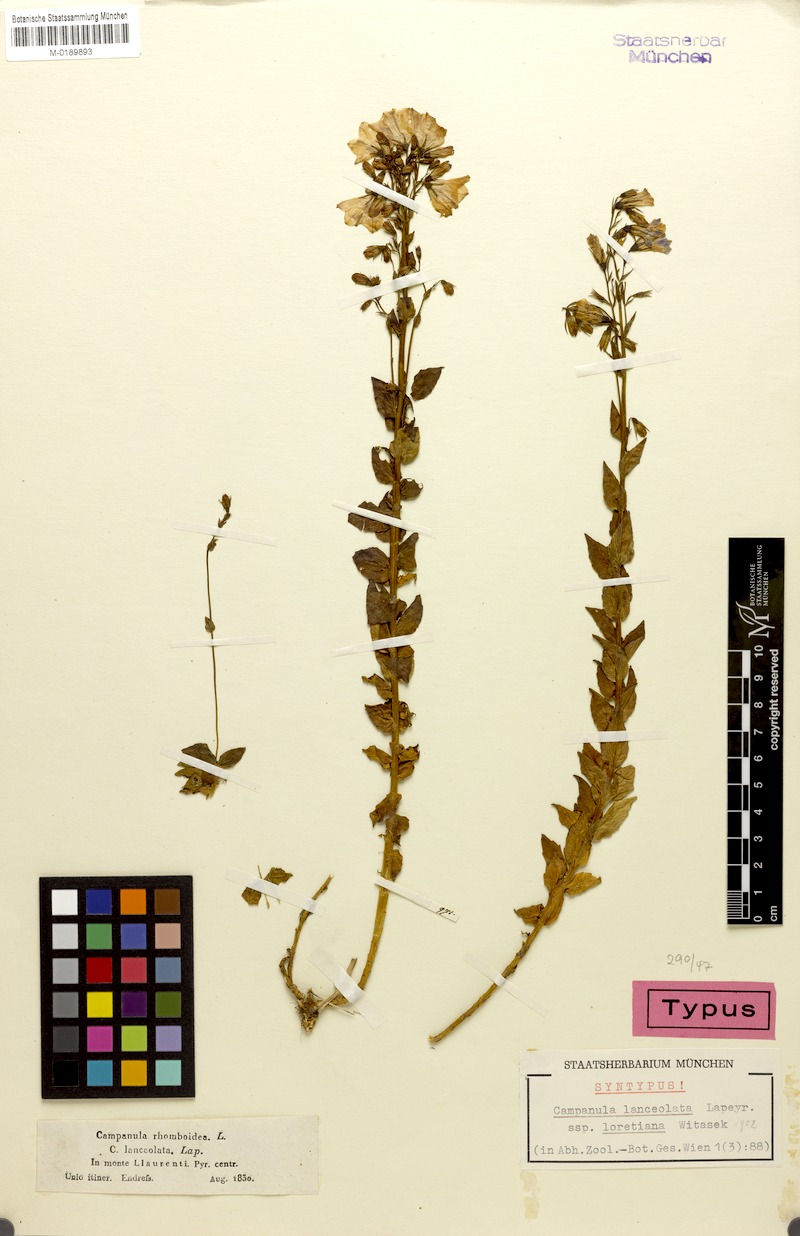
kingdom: Plantae
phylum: Tracheophyta
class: Magnoliopsida
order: Asterales
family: Campanulaceae
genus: Campanula
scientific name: Campanula precatoria
